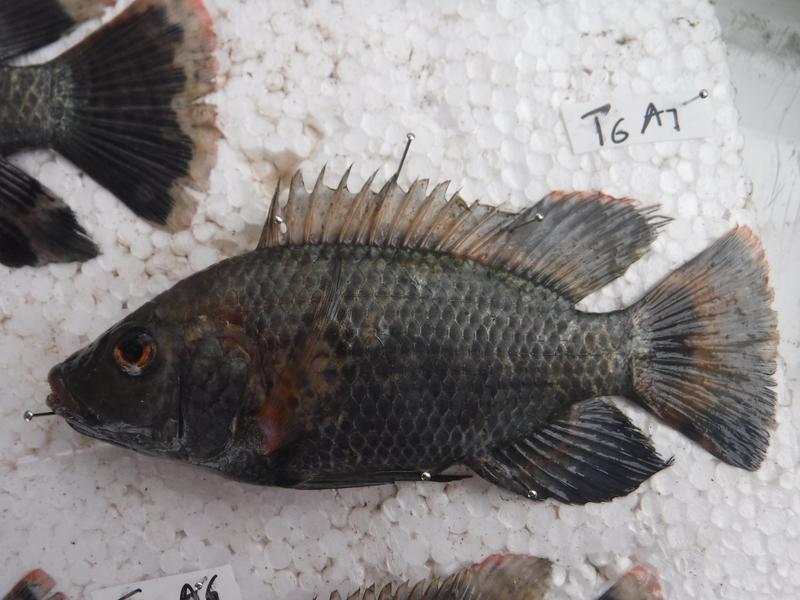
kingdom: Animalia
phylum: Chordata
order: Perciformes
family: Cichlidae
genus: Oreochromis
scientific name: Oreochromis urolepis
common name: Wami tilapia
